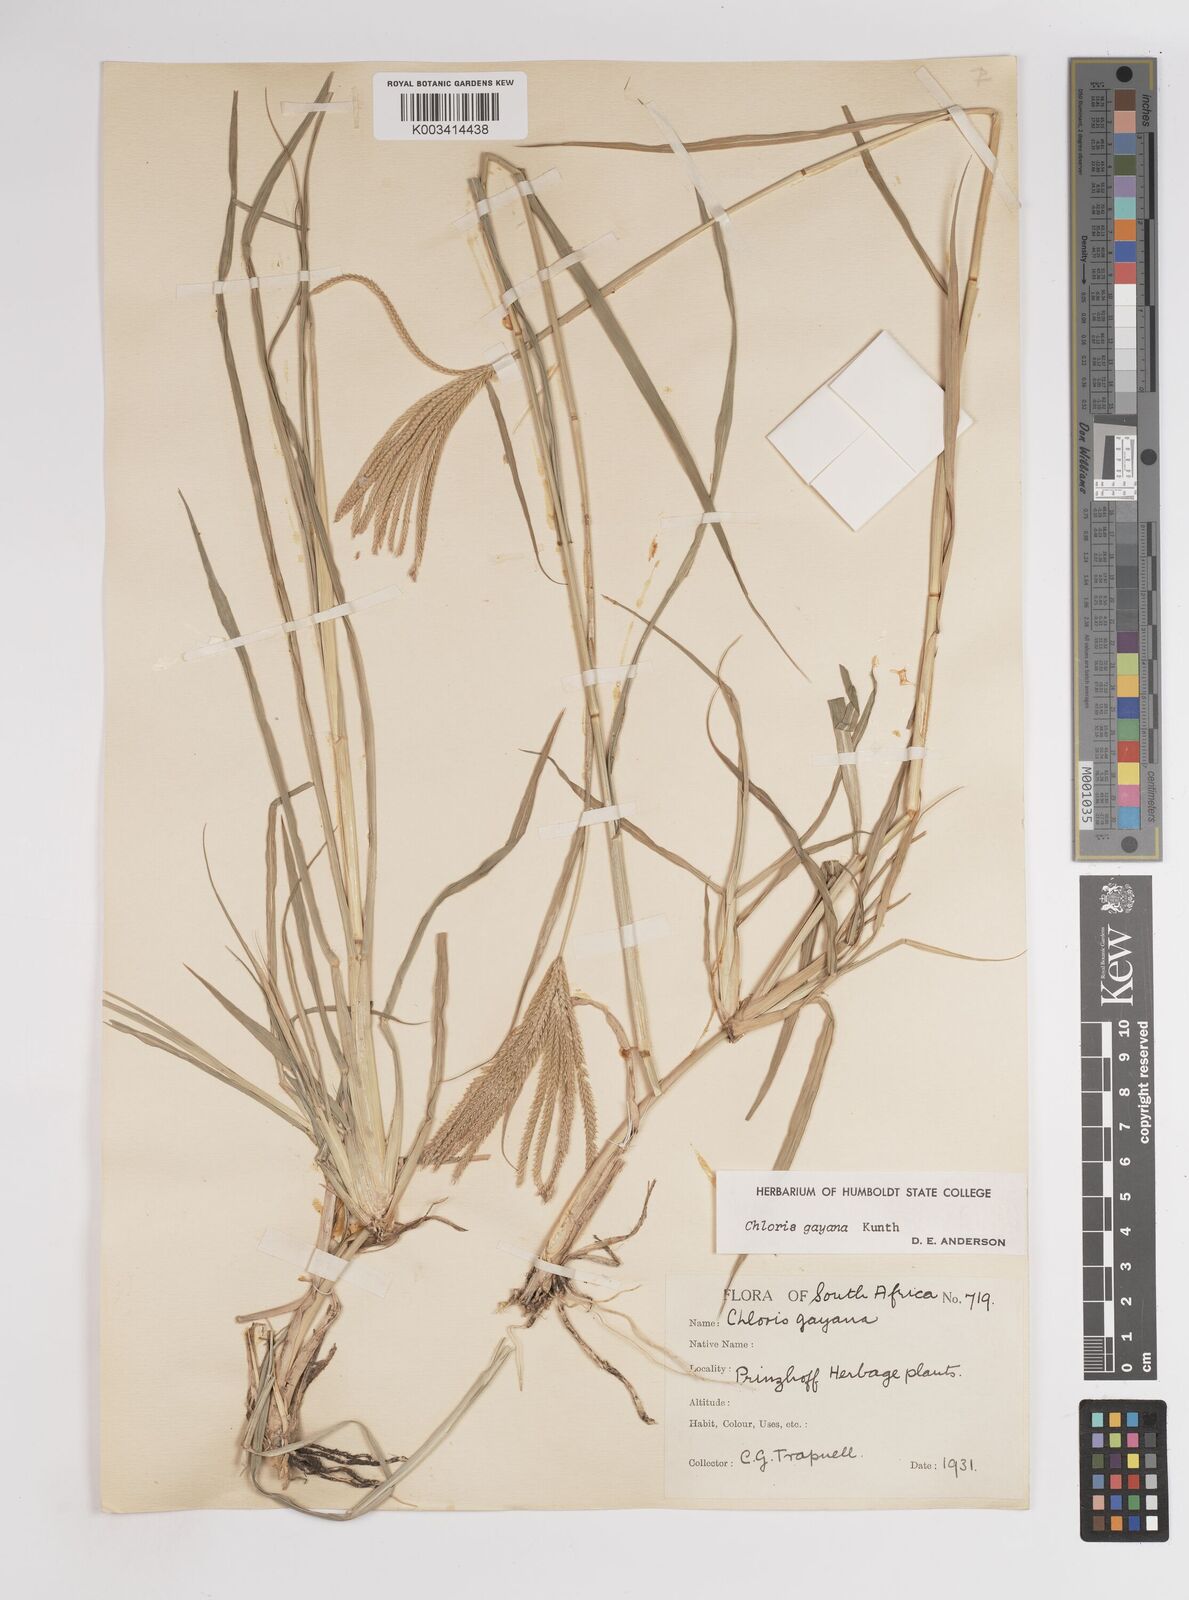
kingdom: Plantae
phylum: Tracheophyta
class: Liliopsida
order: Poales
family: Poaceae
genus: Chloris
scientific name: Chloris gayana
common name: Rhodes grass
